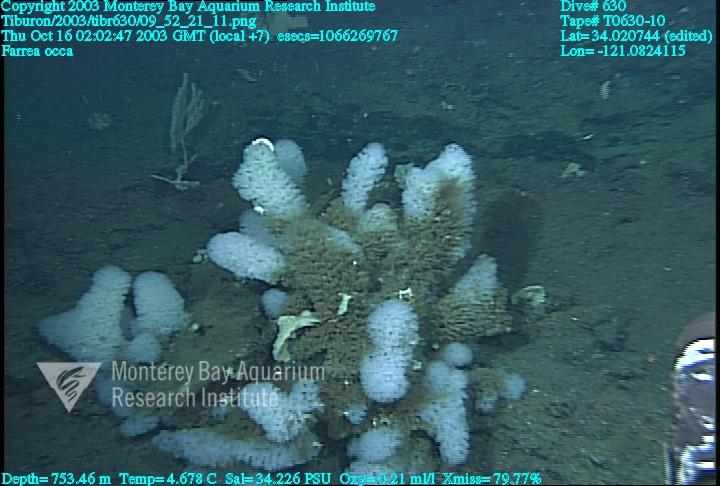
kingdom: Animalia
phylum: Porifera
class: Hexactinellida
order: Sceptrulophora
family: Farreidae
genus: Farrea
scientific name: Farrea occa
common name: Reversed glass sponge
